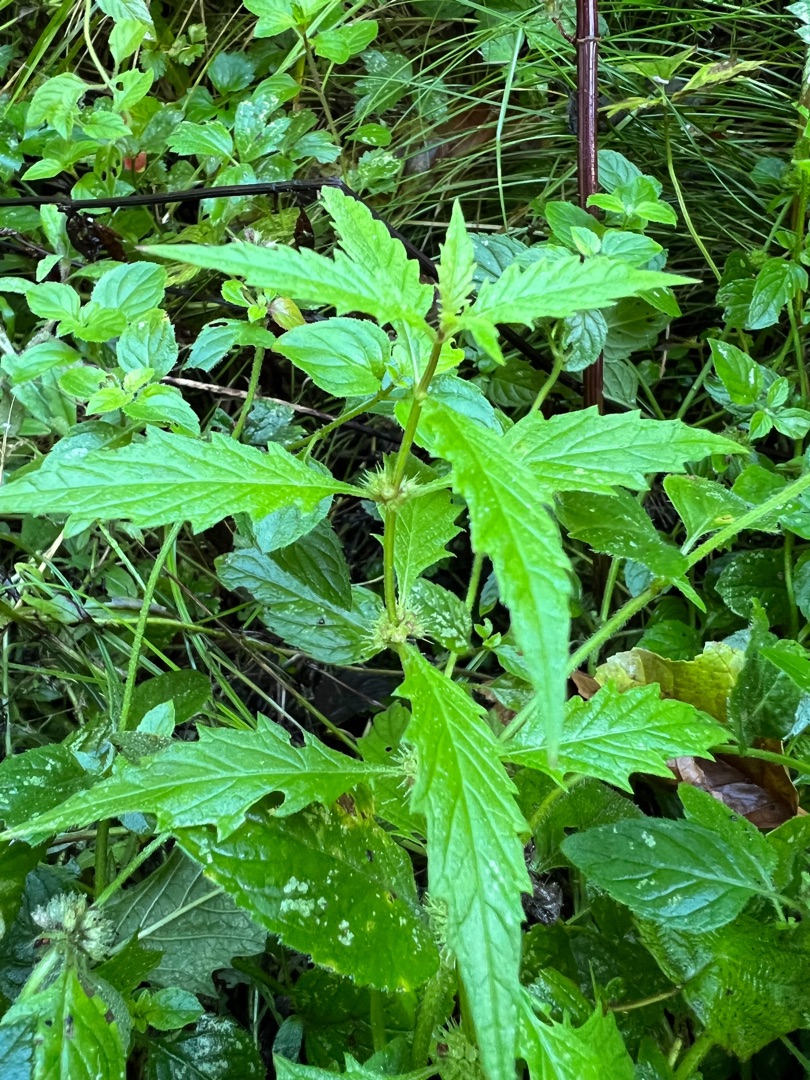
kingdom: Plantae
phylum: Tracheophyta
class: Magnoliopsida
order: Lamiales
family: Lamiaceae
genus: Lycopus
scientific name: Lycopus europaeus
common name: Sværtevæld
